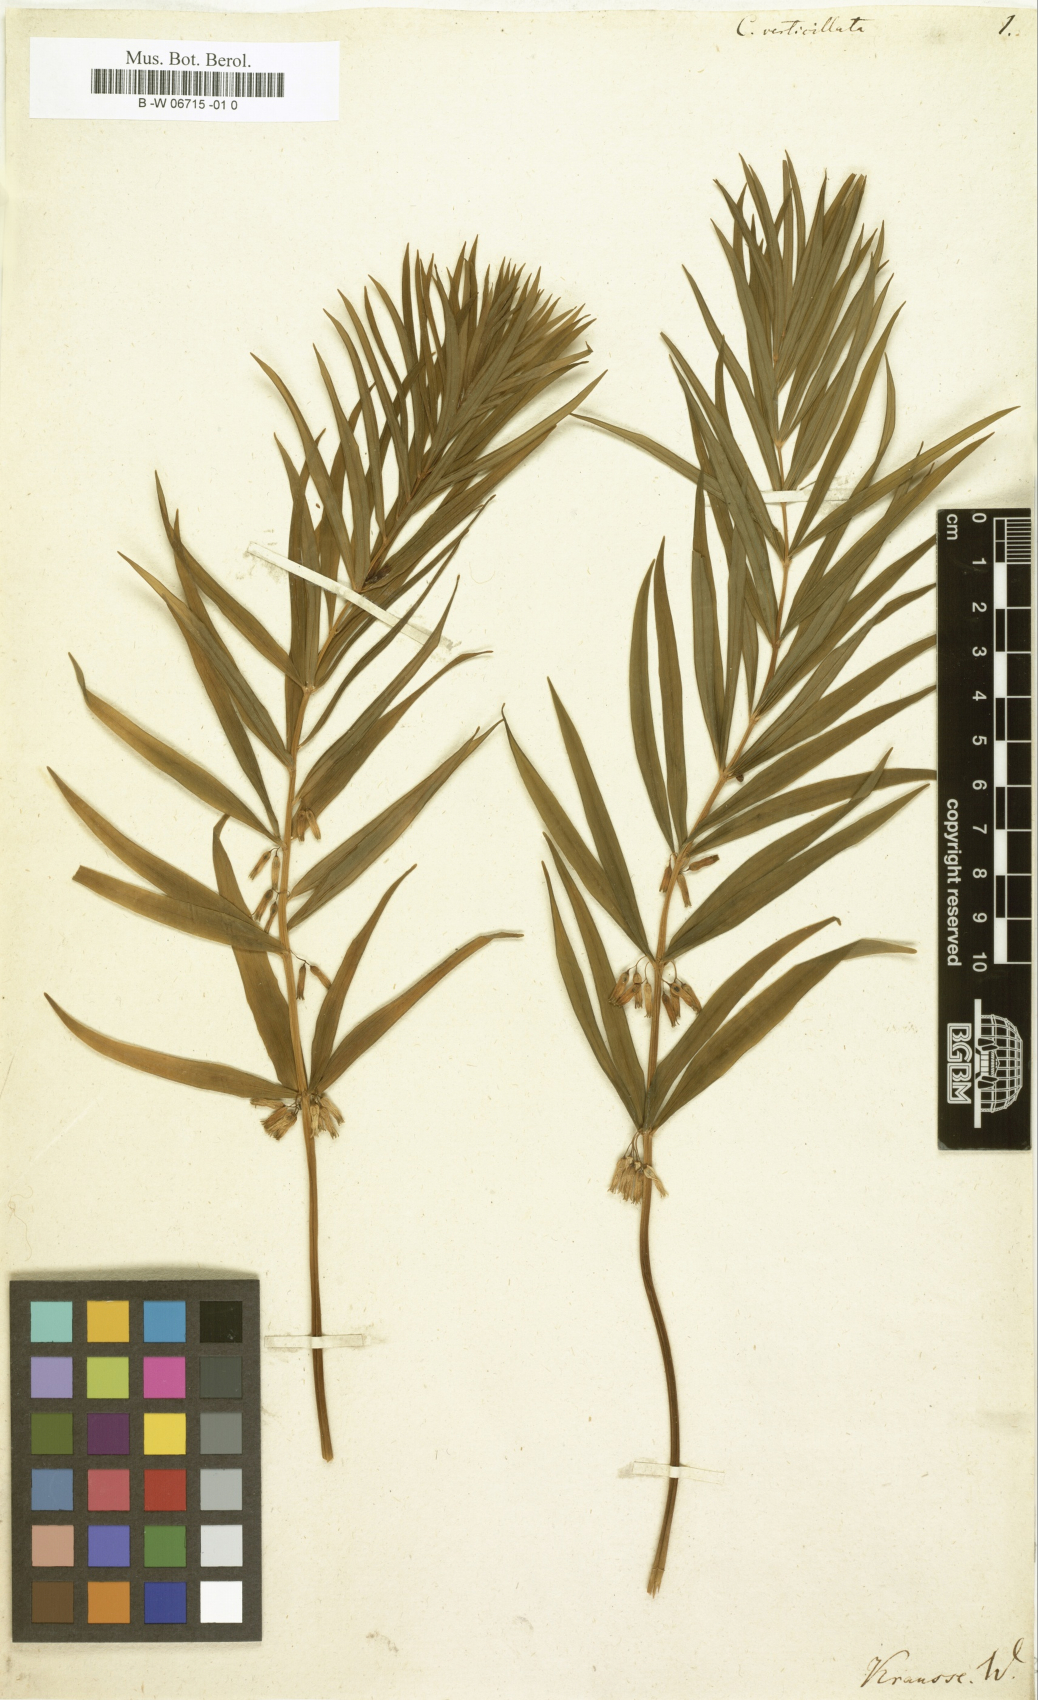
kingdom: Plantae
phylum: Tracheophyta
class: Liliopsida
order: Asparagales
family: Asparagaceae
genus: Polygonatum
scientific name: Polygonatum verticillatum
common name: Whorled solomon's-seal
